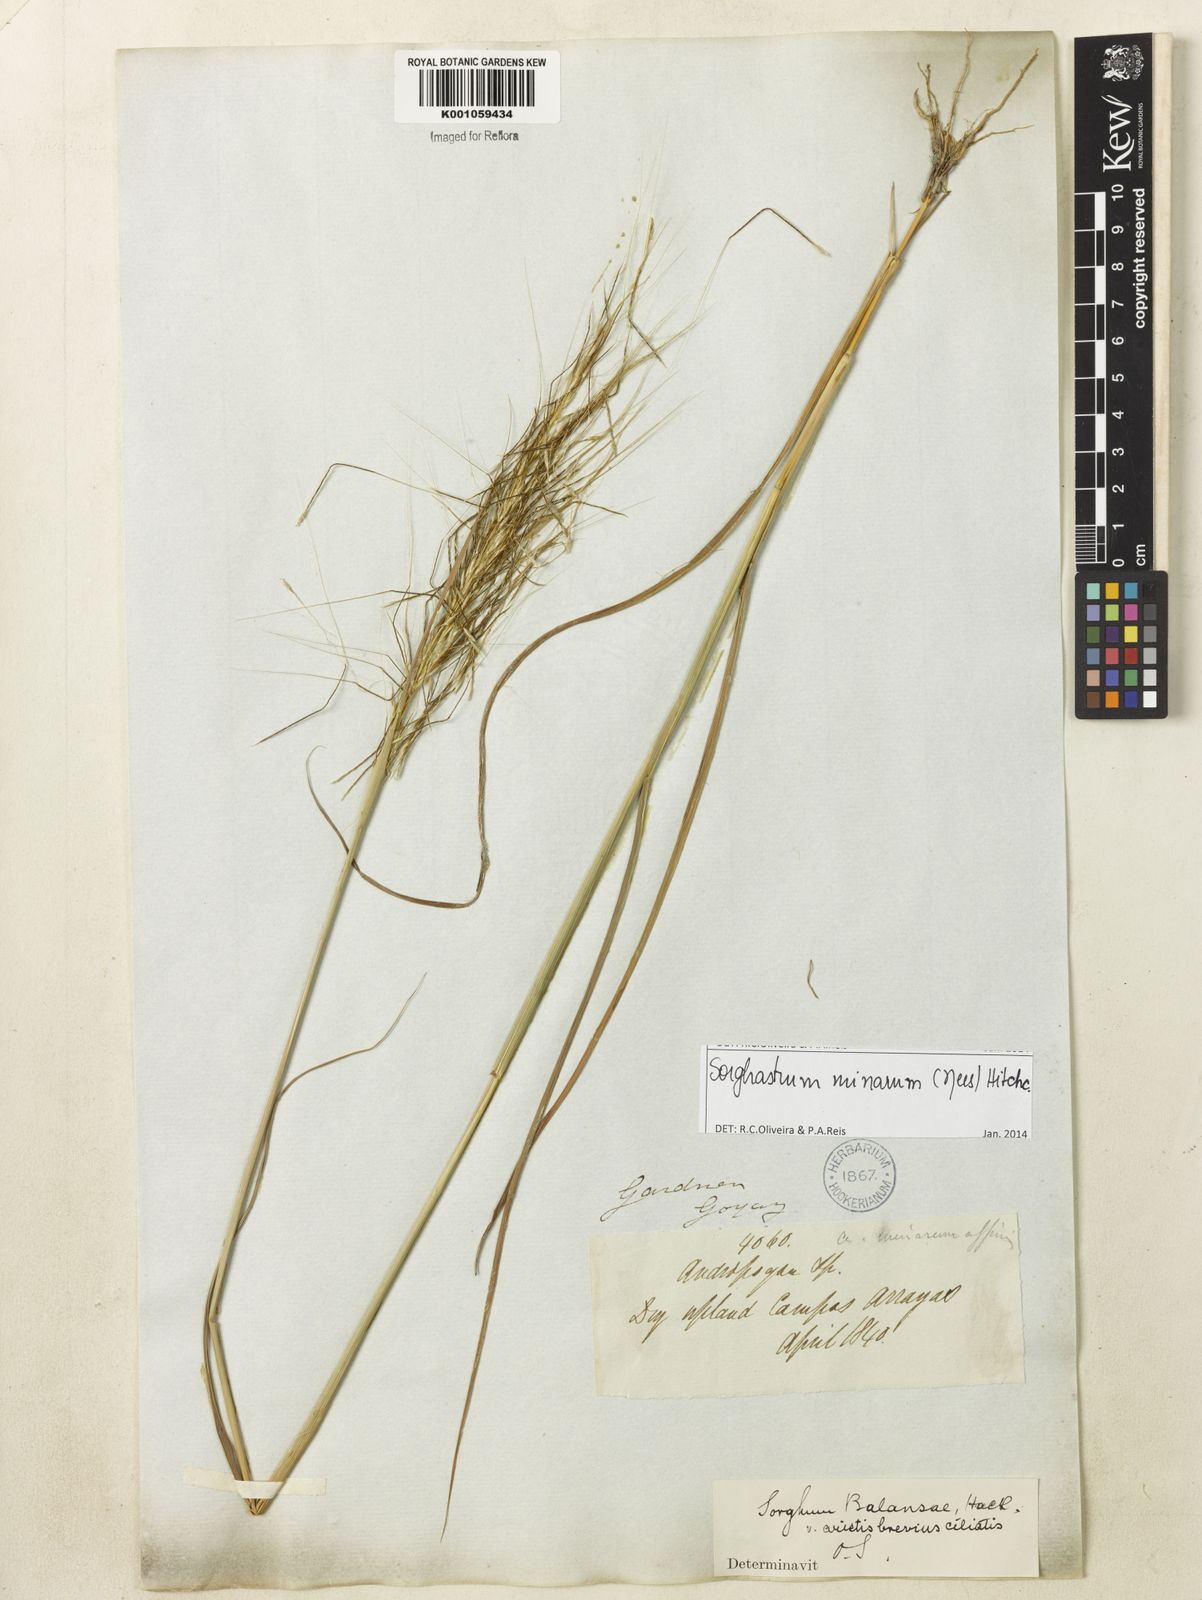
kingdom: Plantae
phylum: Tracheophyta
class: Liliopsida
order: Poales
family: Poaceae
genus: Sorghastrum
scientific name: Sorghastrum minarum
